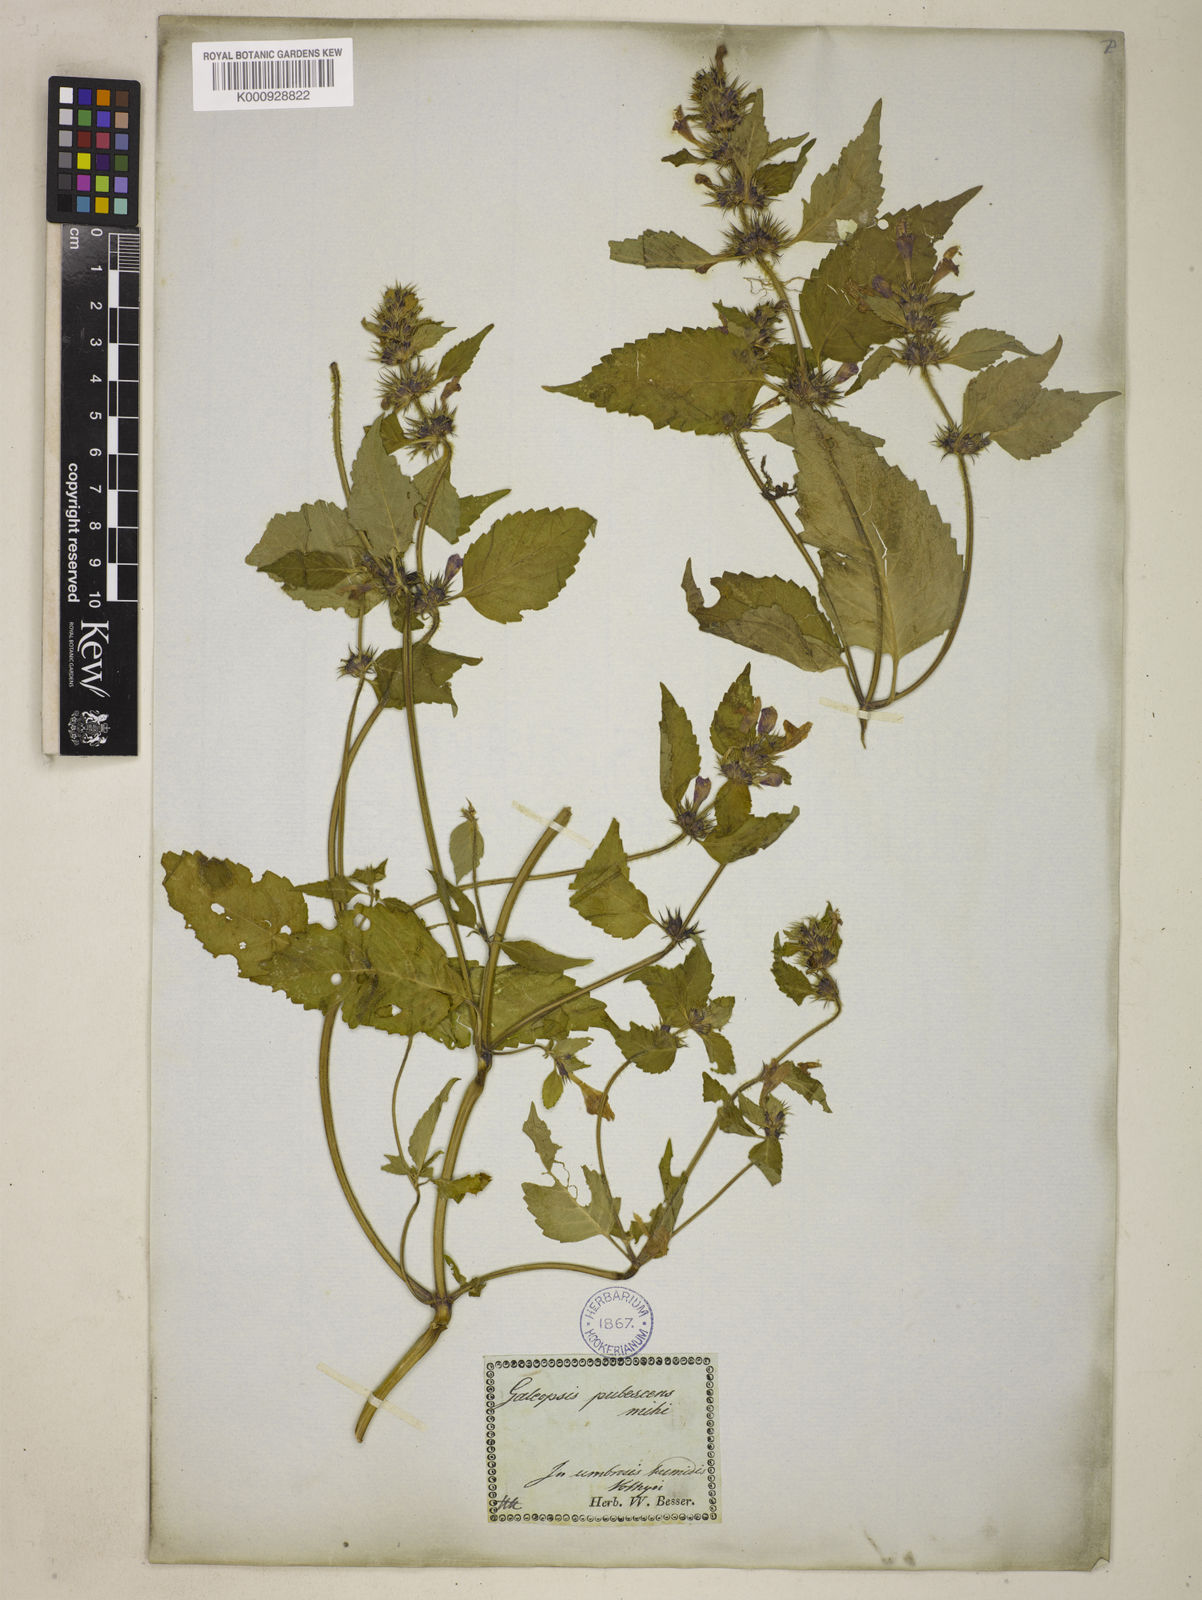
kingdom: Plantae
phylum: Tracheophyta
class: Magnoliopsida
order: Lamiales
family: Lamiaceae
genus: Galeopsis
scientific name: Galeopsis speciosa
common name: Large-flowered hemp-nettle
